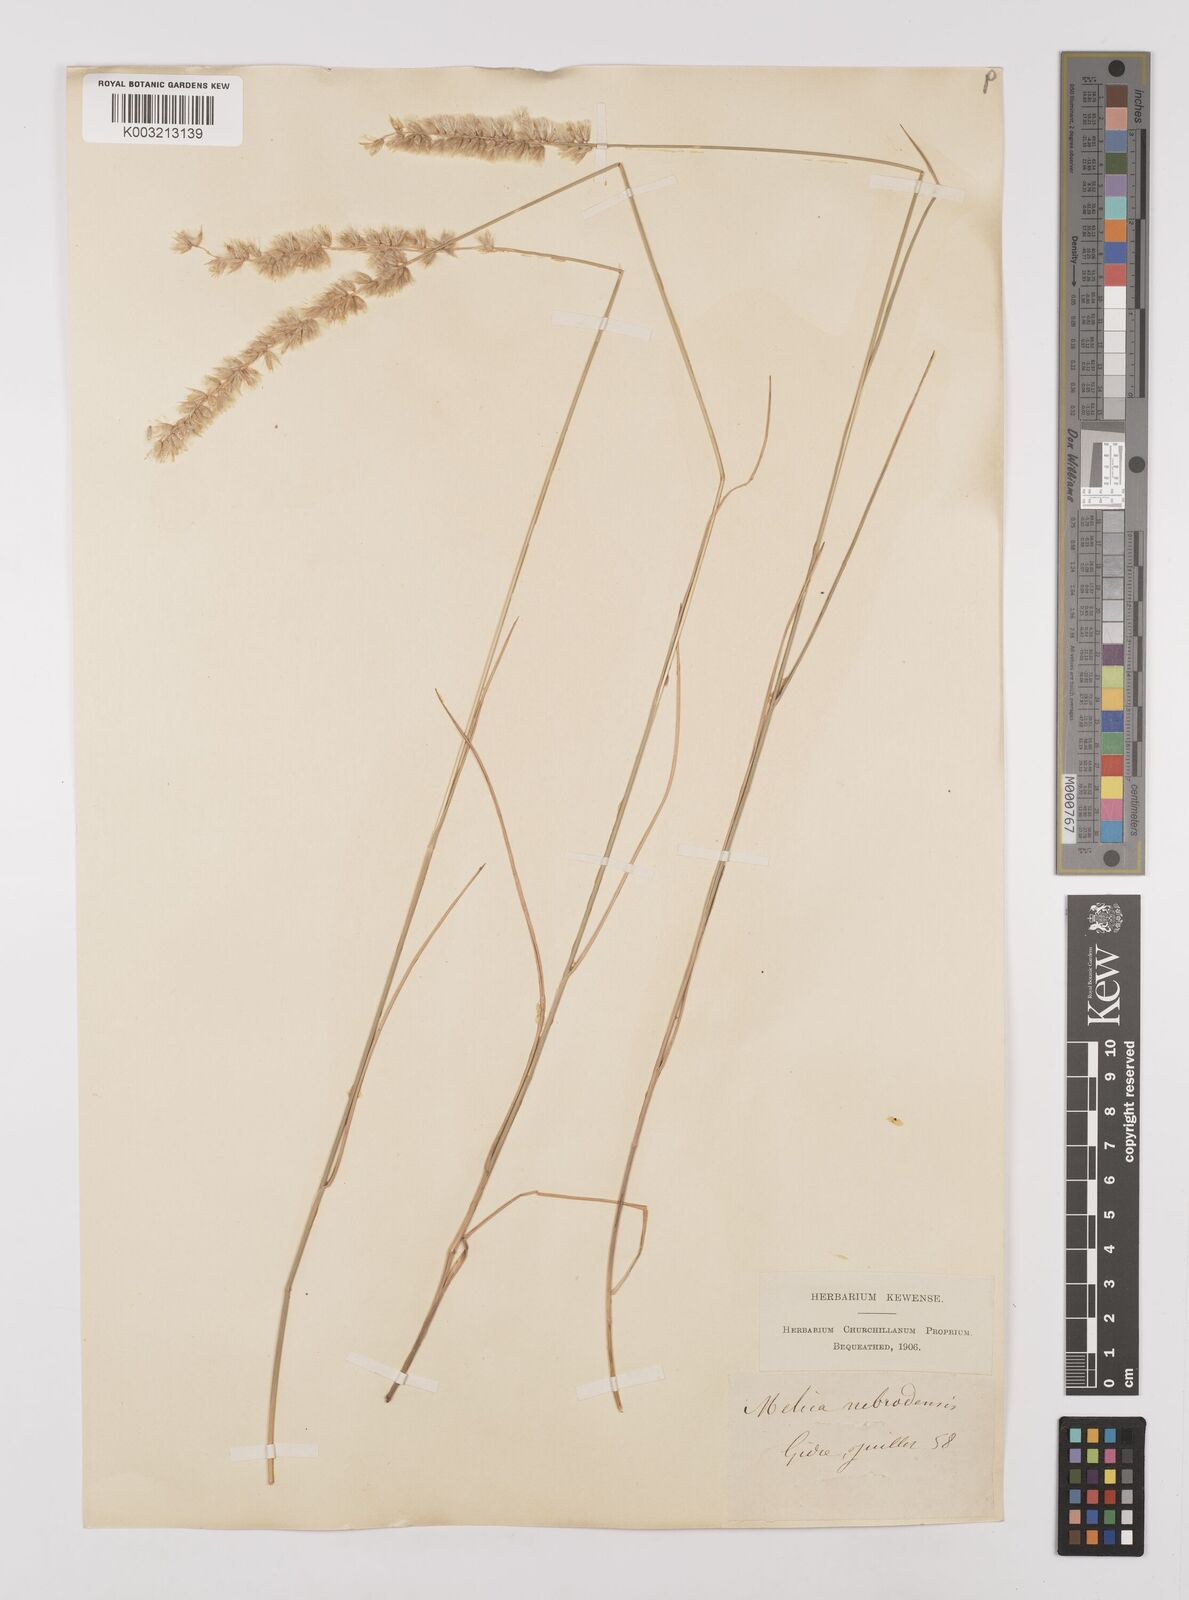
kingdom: Plantae
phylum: Tracheophyta
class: Liliopsida
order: Poales
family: Poaceae
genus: Melica
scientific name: Melica ciliata
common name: Hairy melicgrass
